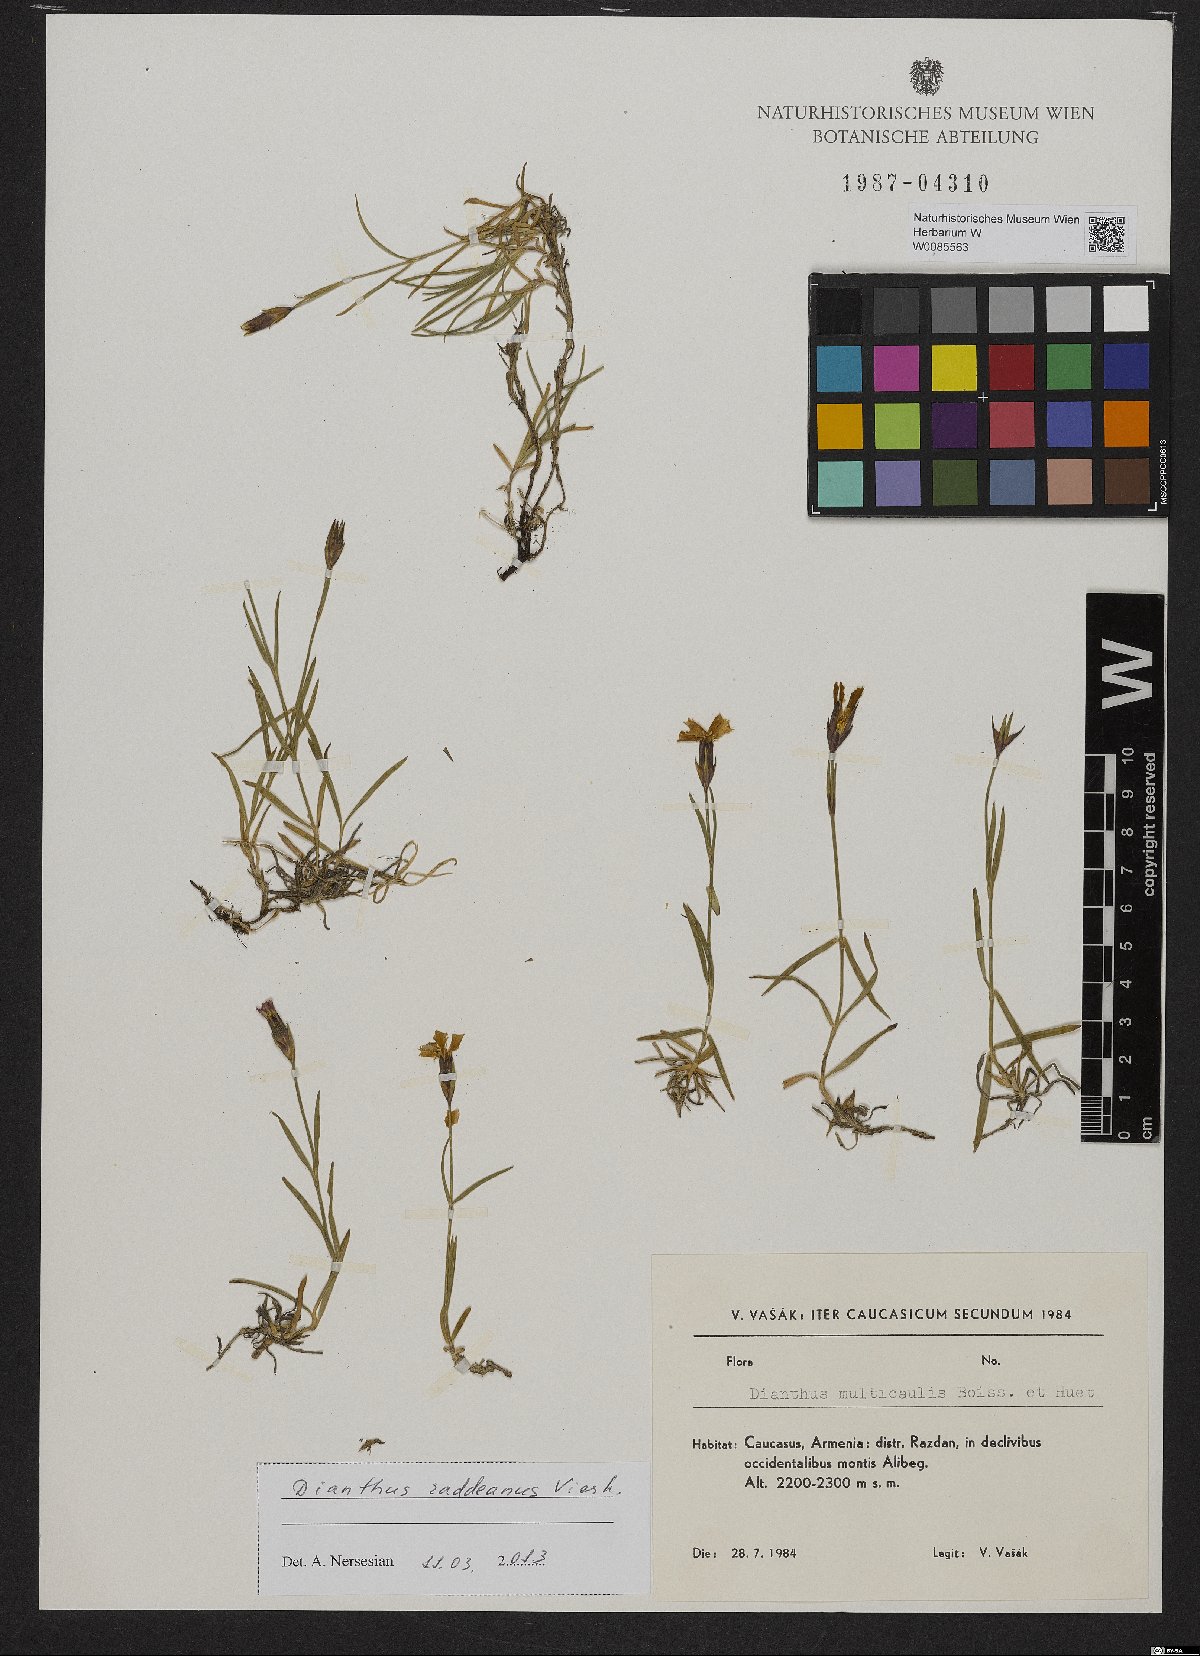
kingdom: Plantae
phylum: Tracheophyta
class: Magnoliopsida
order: Caryophyllales
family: Caryophyllaceae
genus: Dianthus
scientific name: Dianthus raddeanus
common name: Radde's pink
